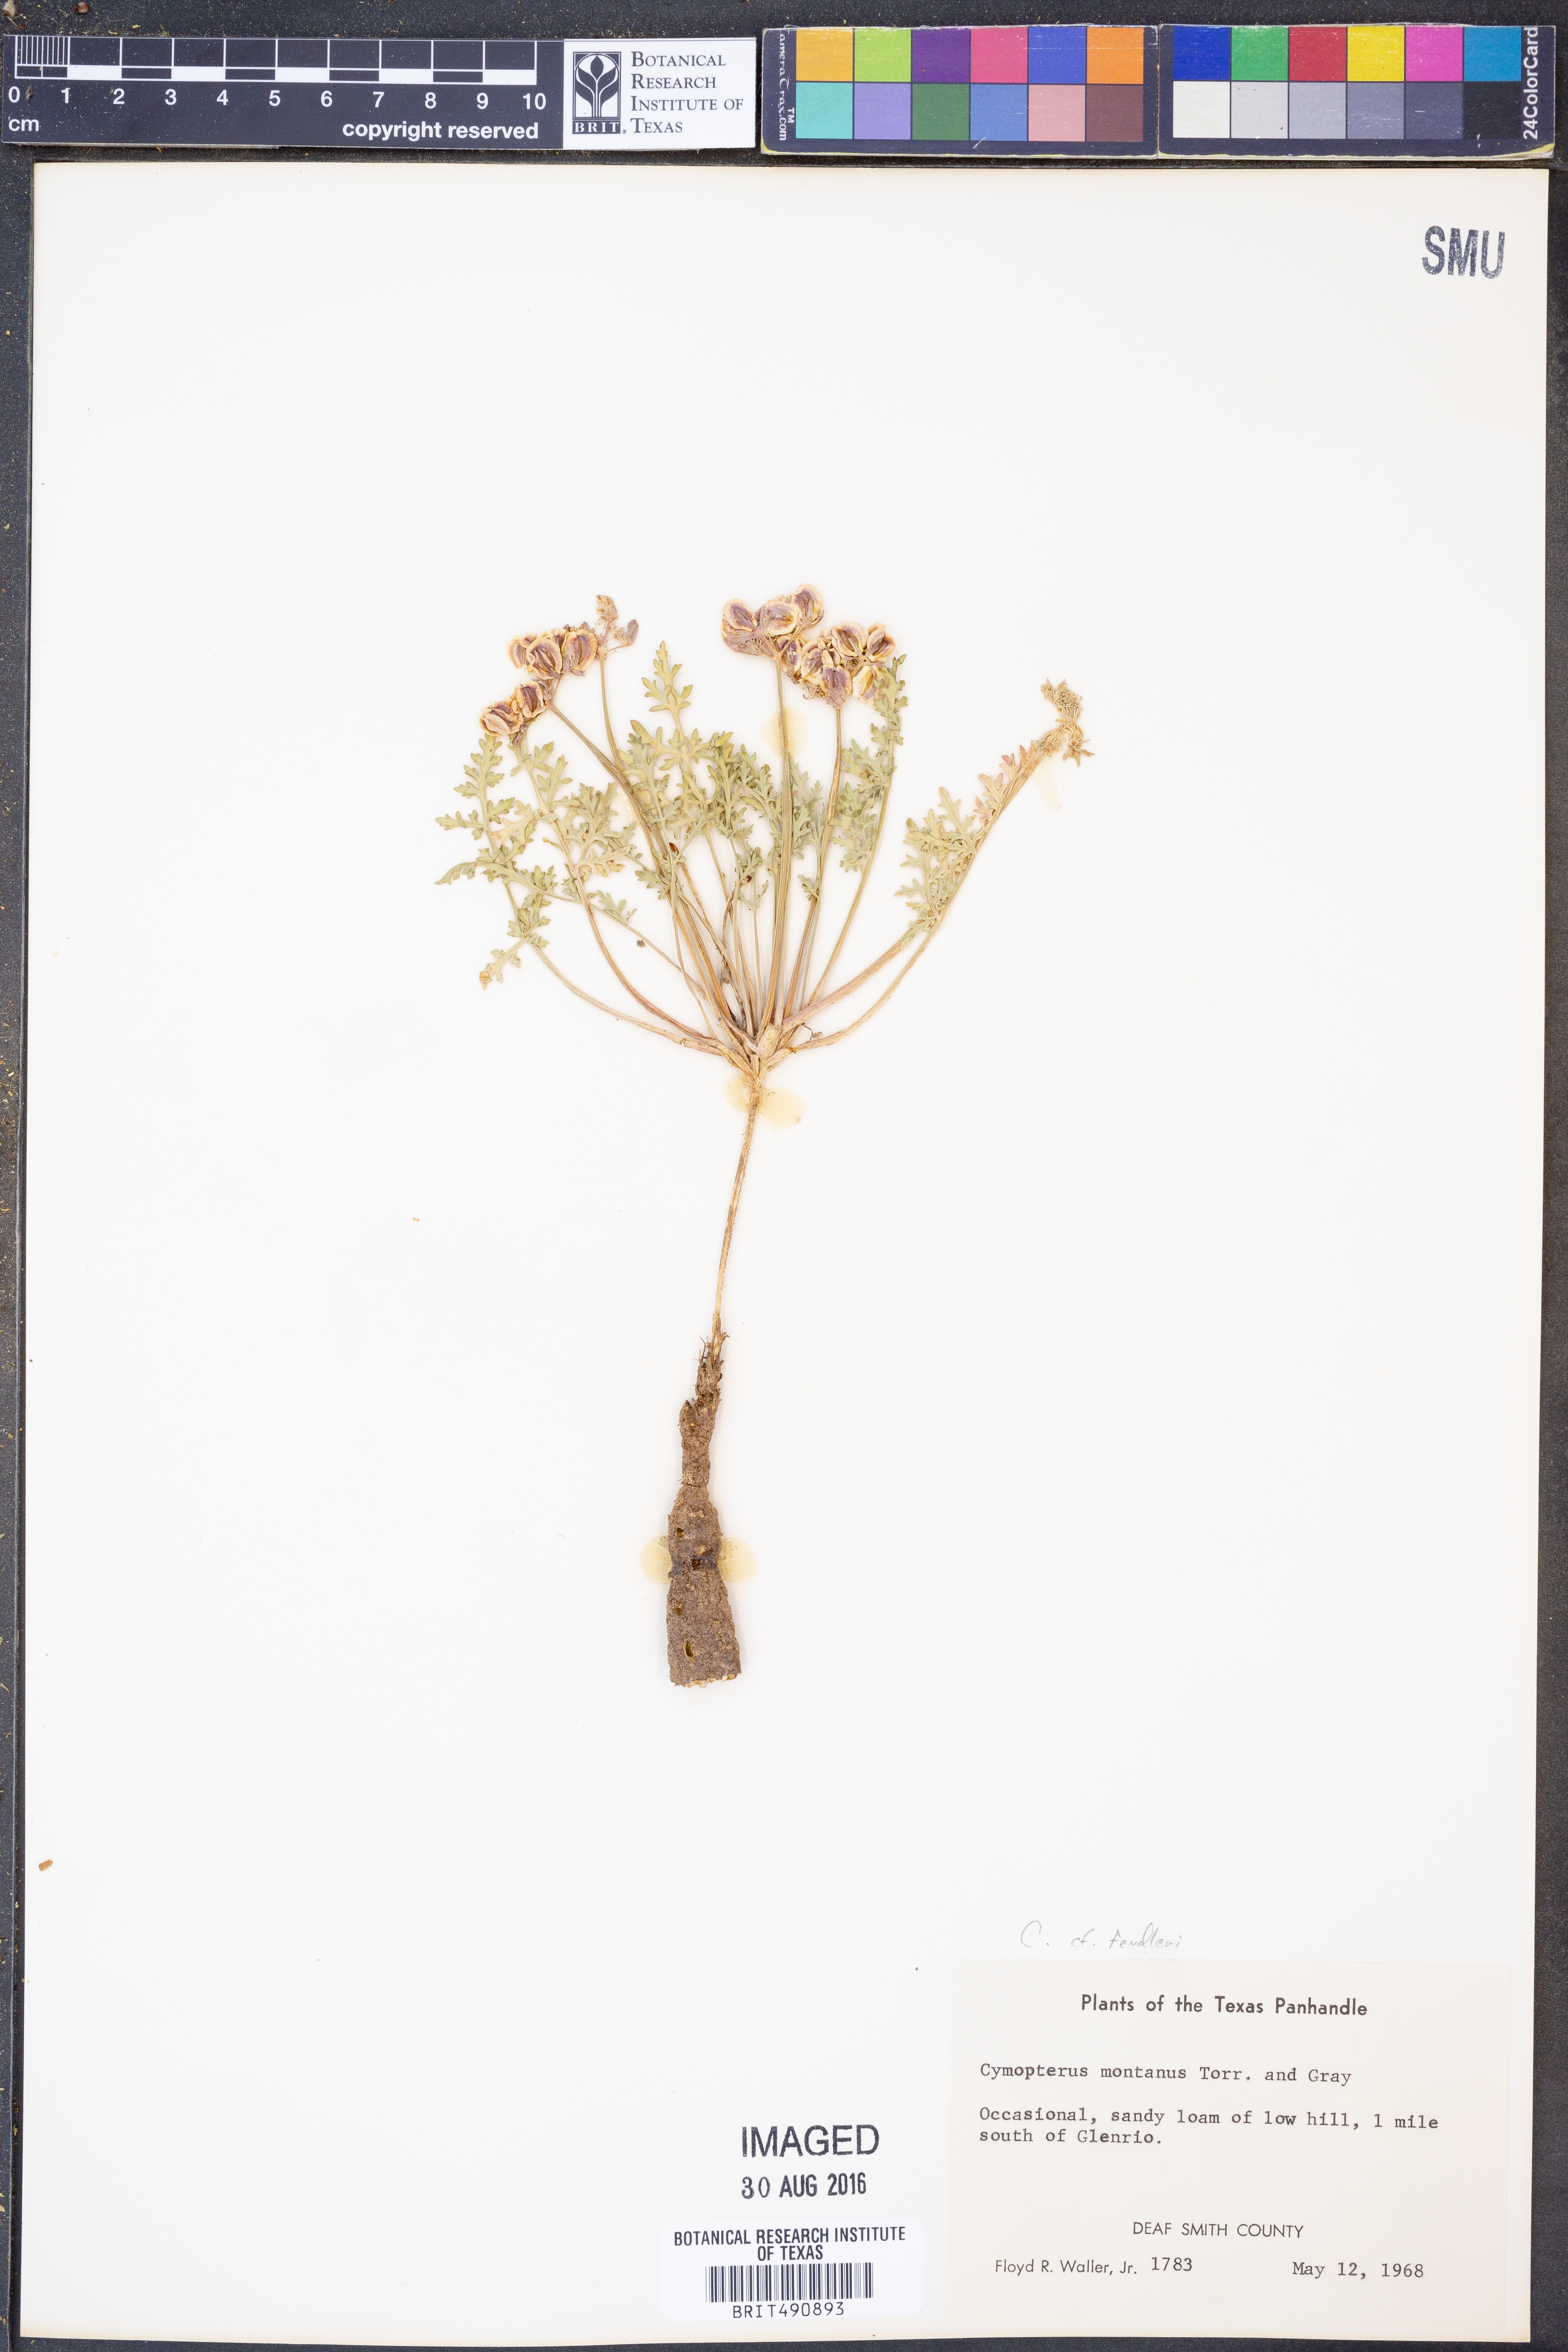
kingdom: Plantae
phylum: Tracheophyta
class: Magnoliopsida
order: Apiales
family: Apiaceae
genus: Cymopterus
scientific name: Cymopterus glomeratus
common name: Plains spring parsley
